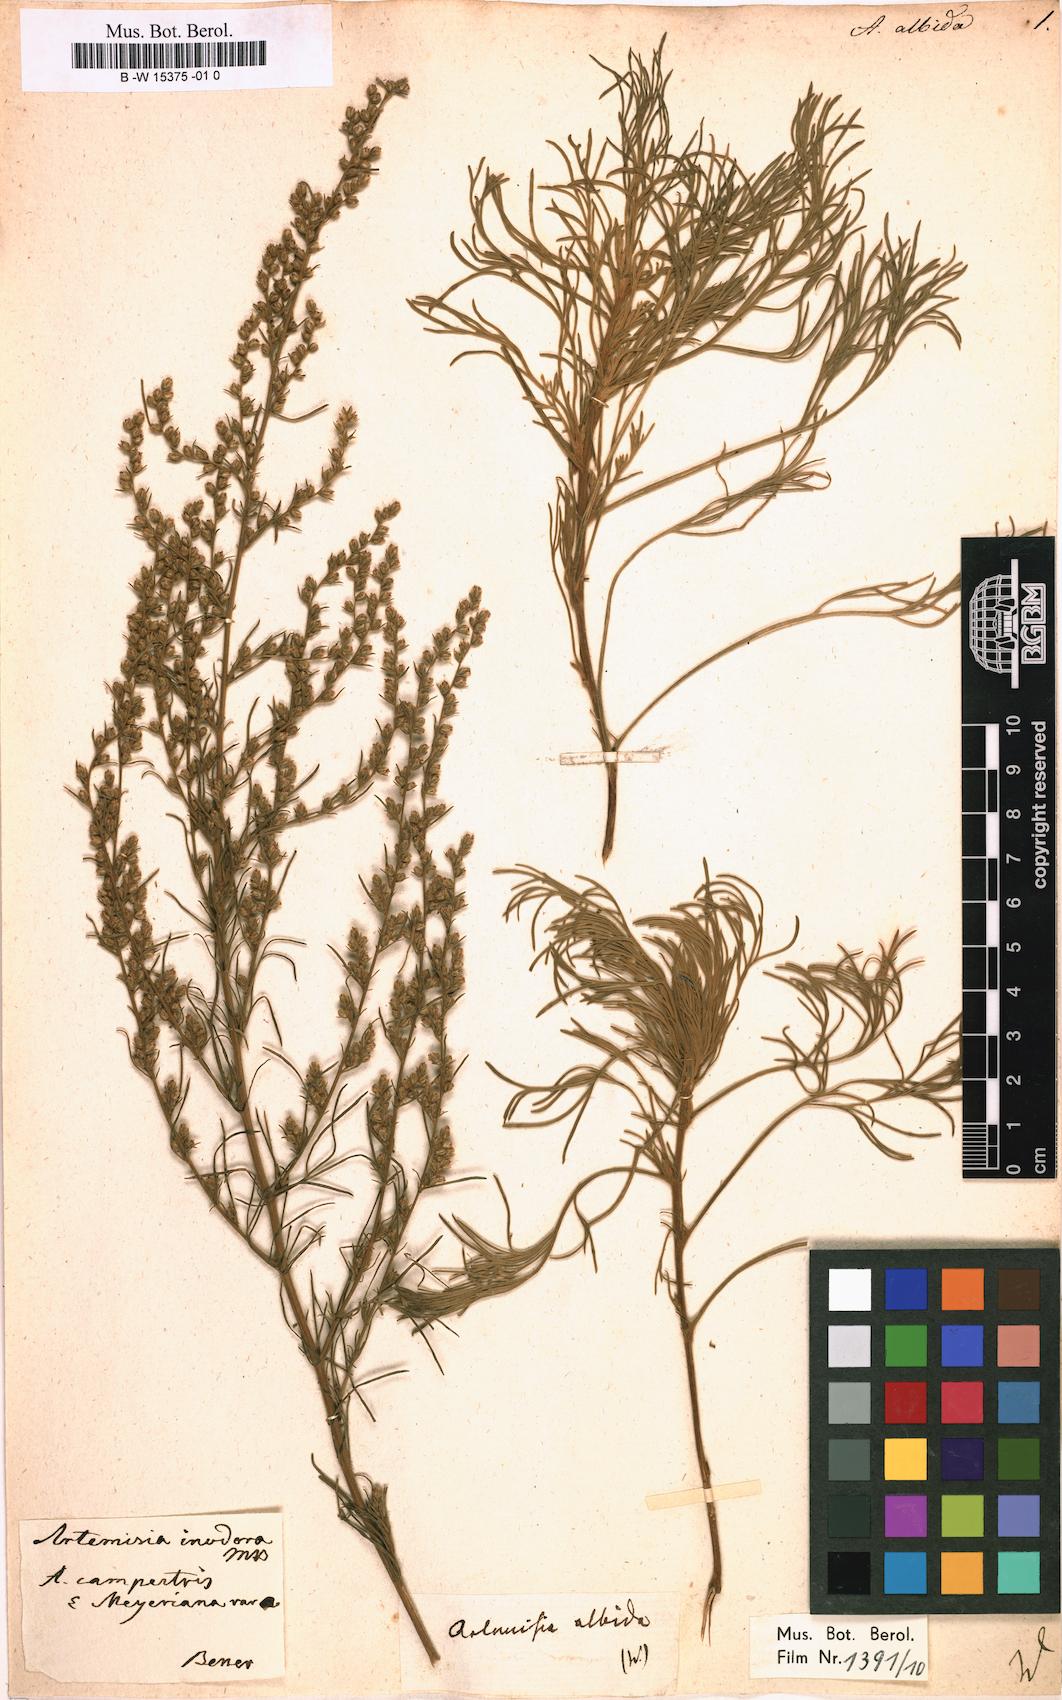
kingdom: Plantae
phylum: Tracheophyta
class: Magnoliopsida
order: Asterales
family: Asteraceae
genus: Artemisia
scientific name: Artemisia compacta
